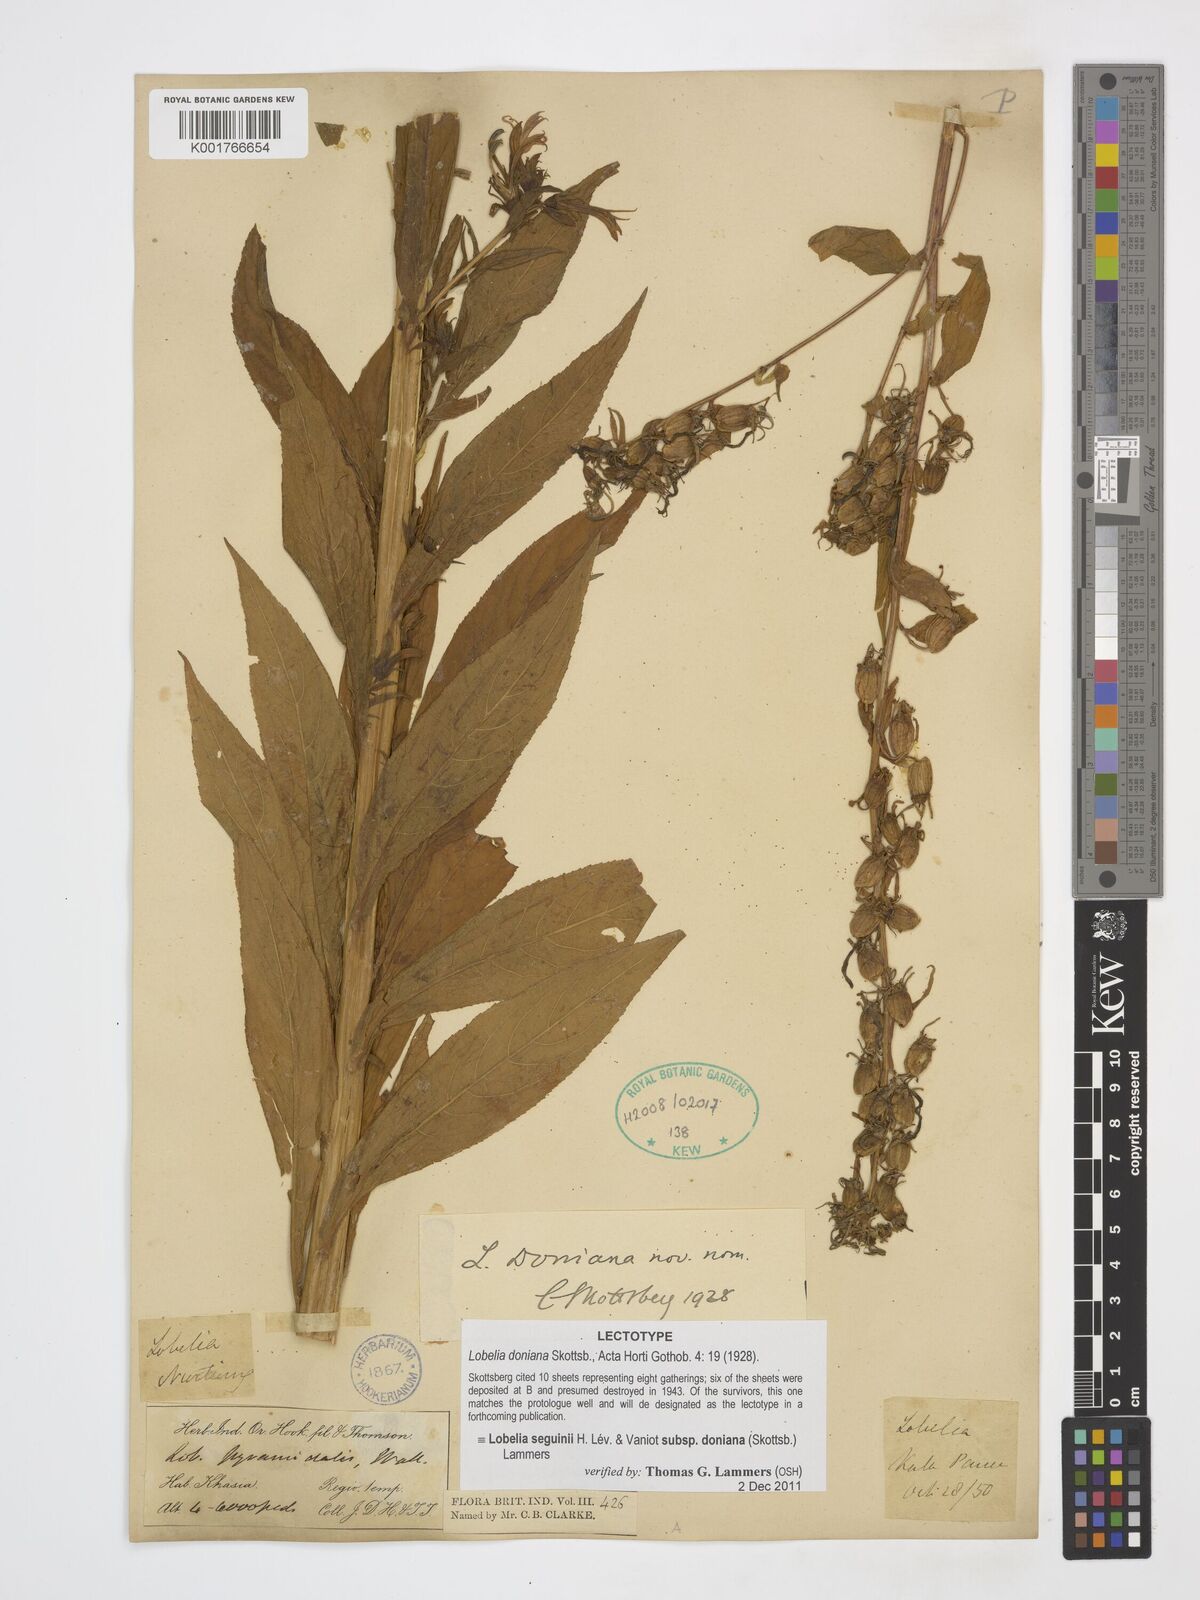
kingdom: Plantae
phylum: Tracheophyta
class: Magnoliopsida
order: Asterales
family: Campanulaceae
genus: Lobelia
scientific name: Lobelia nicotianifolia
